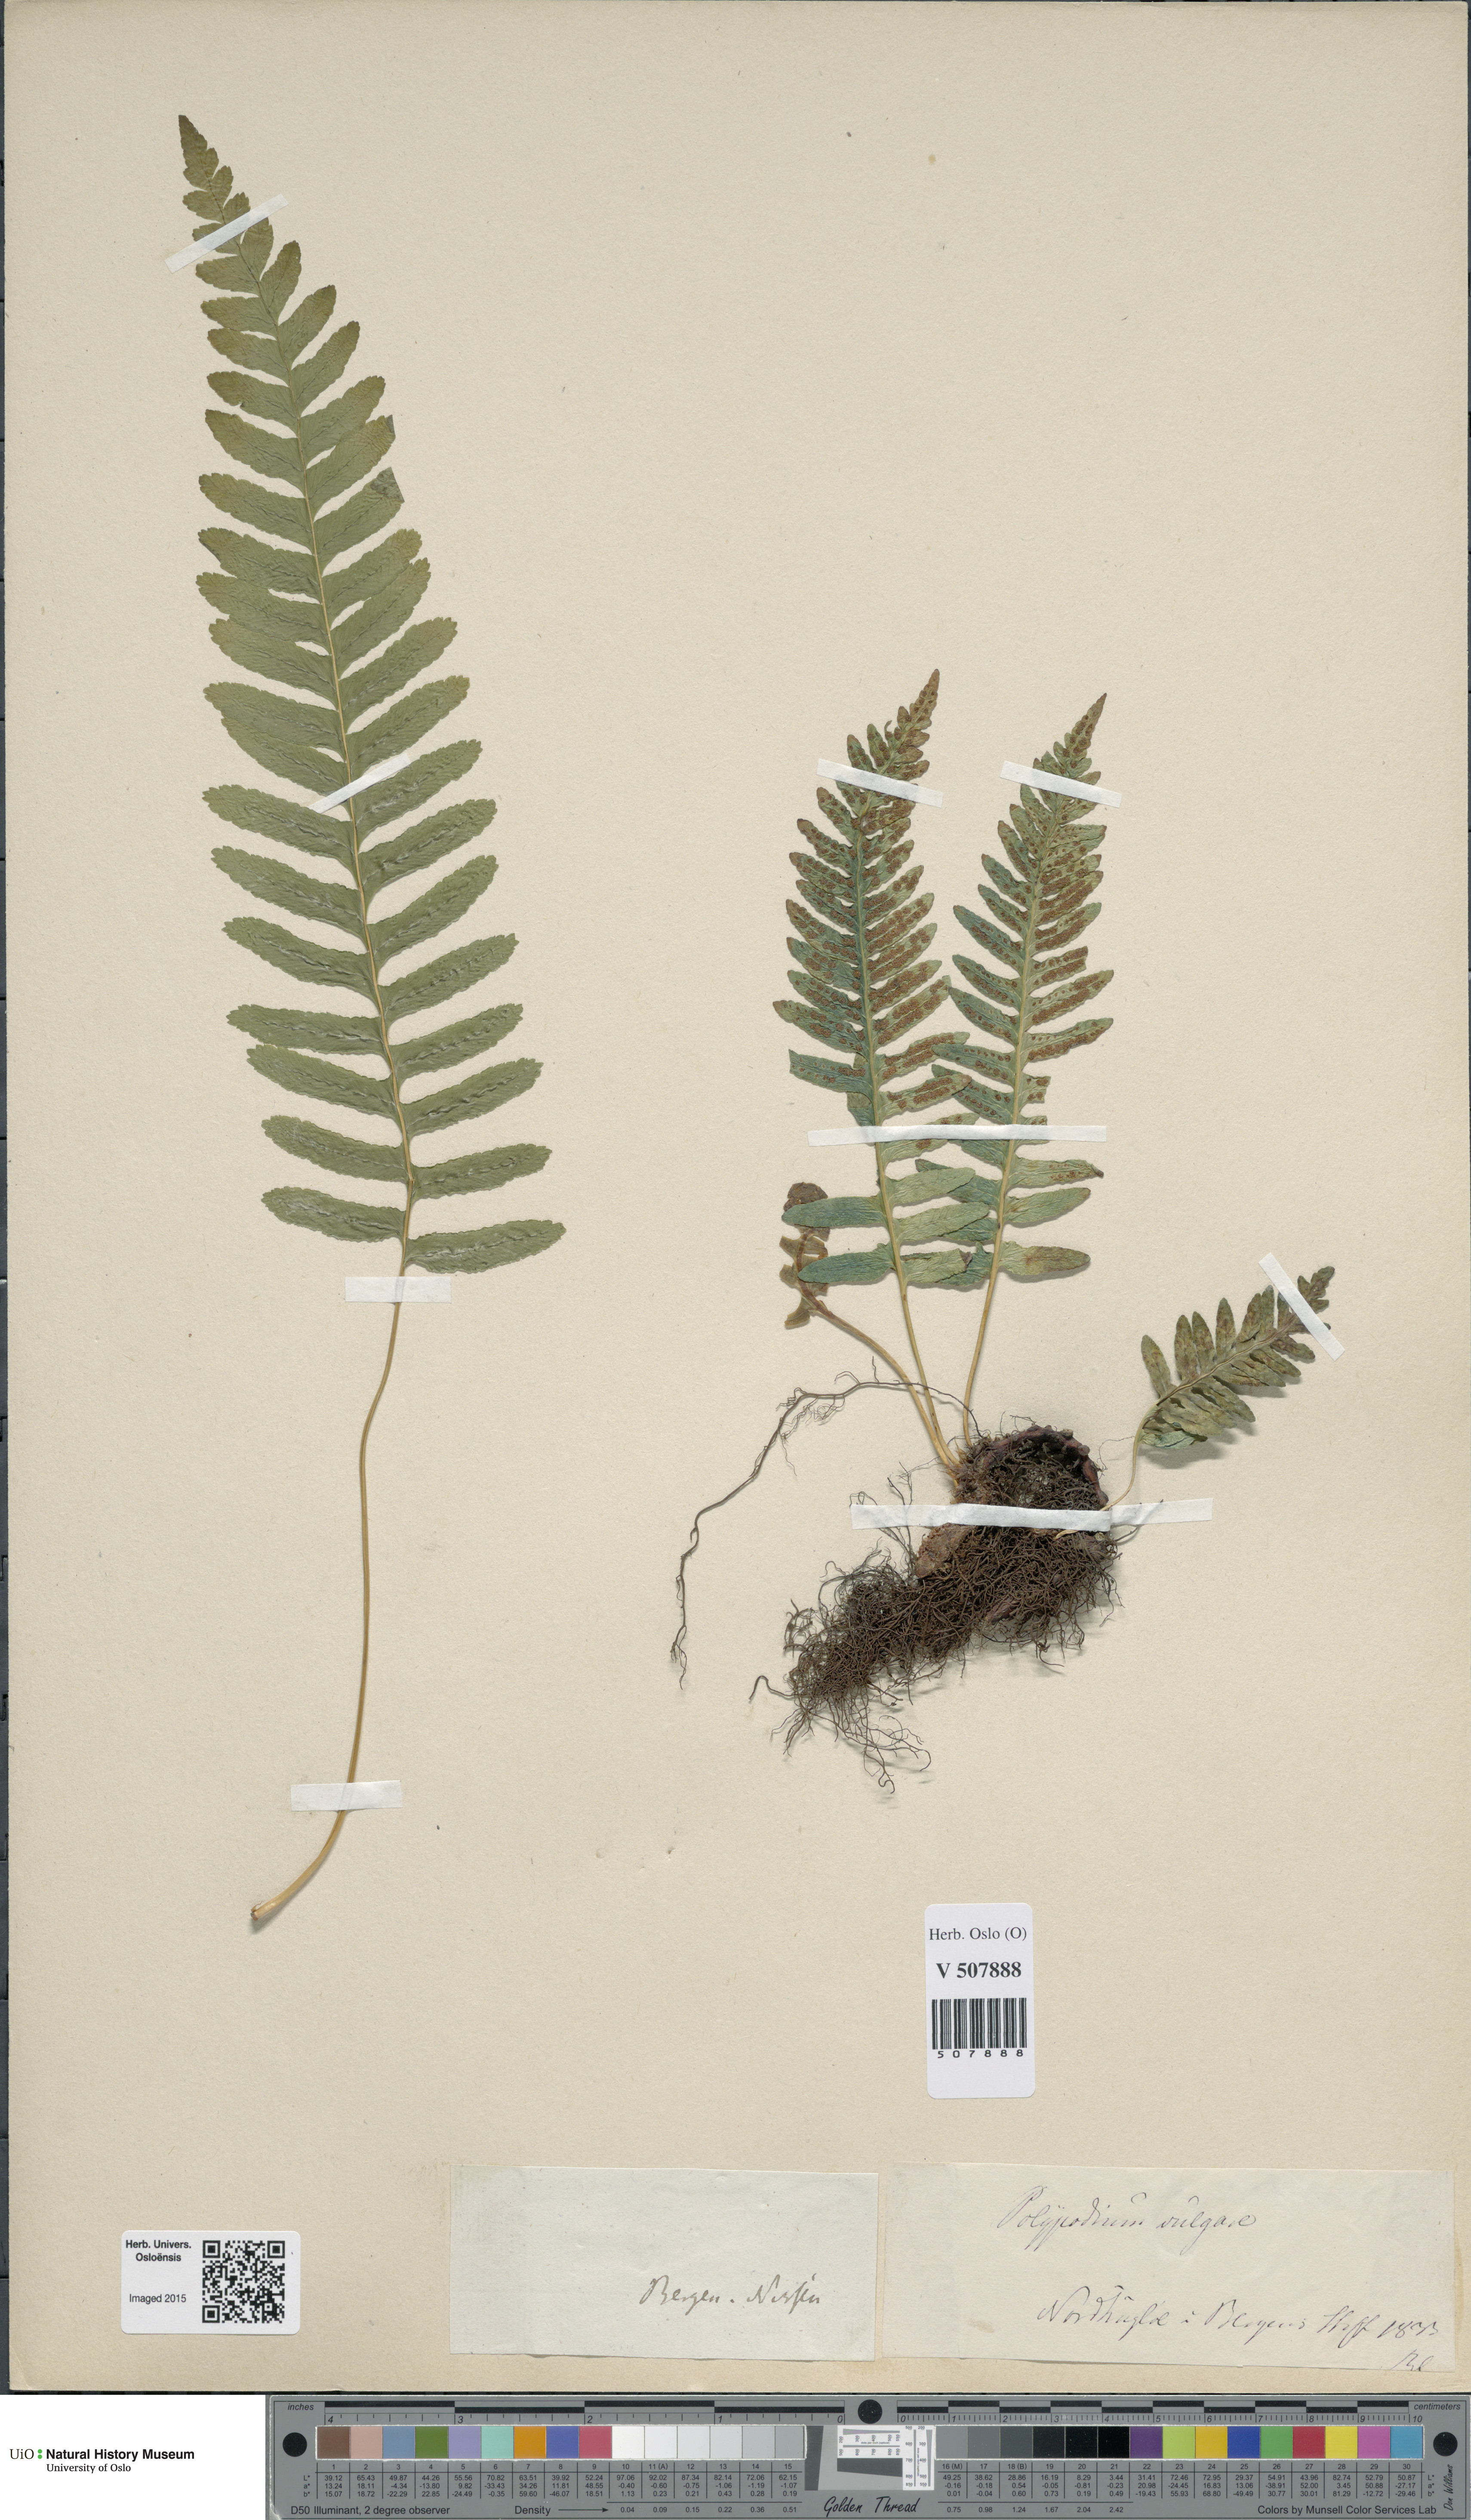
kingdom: Plantae
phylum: Tracheophyta
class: Polypodiopsida
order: Polypodiales
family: Polypodiaceae
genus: Polypodium
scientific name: Polypodium vulgare
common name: Common polypody
